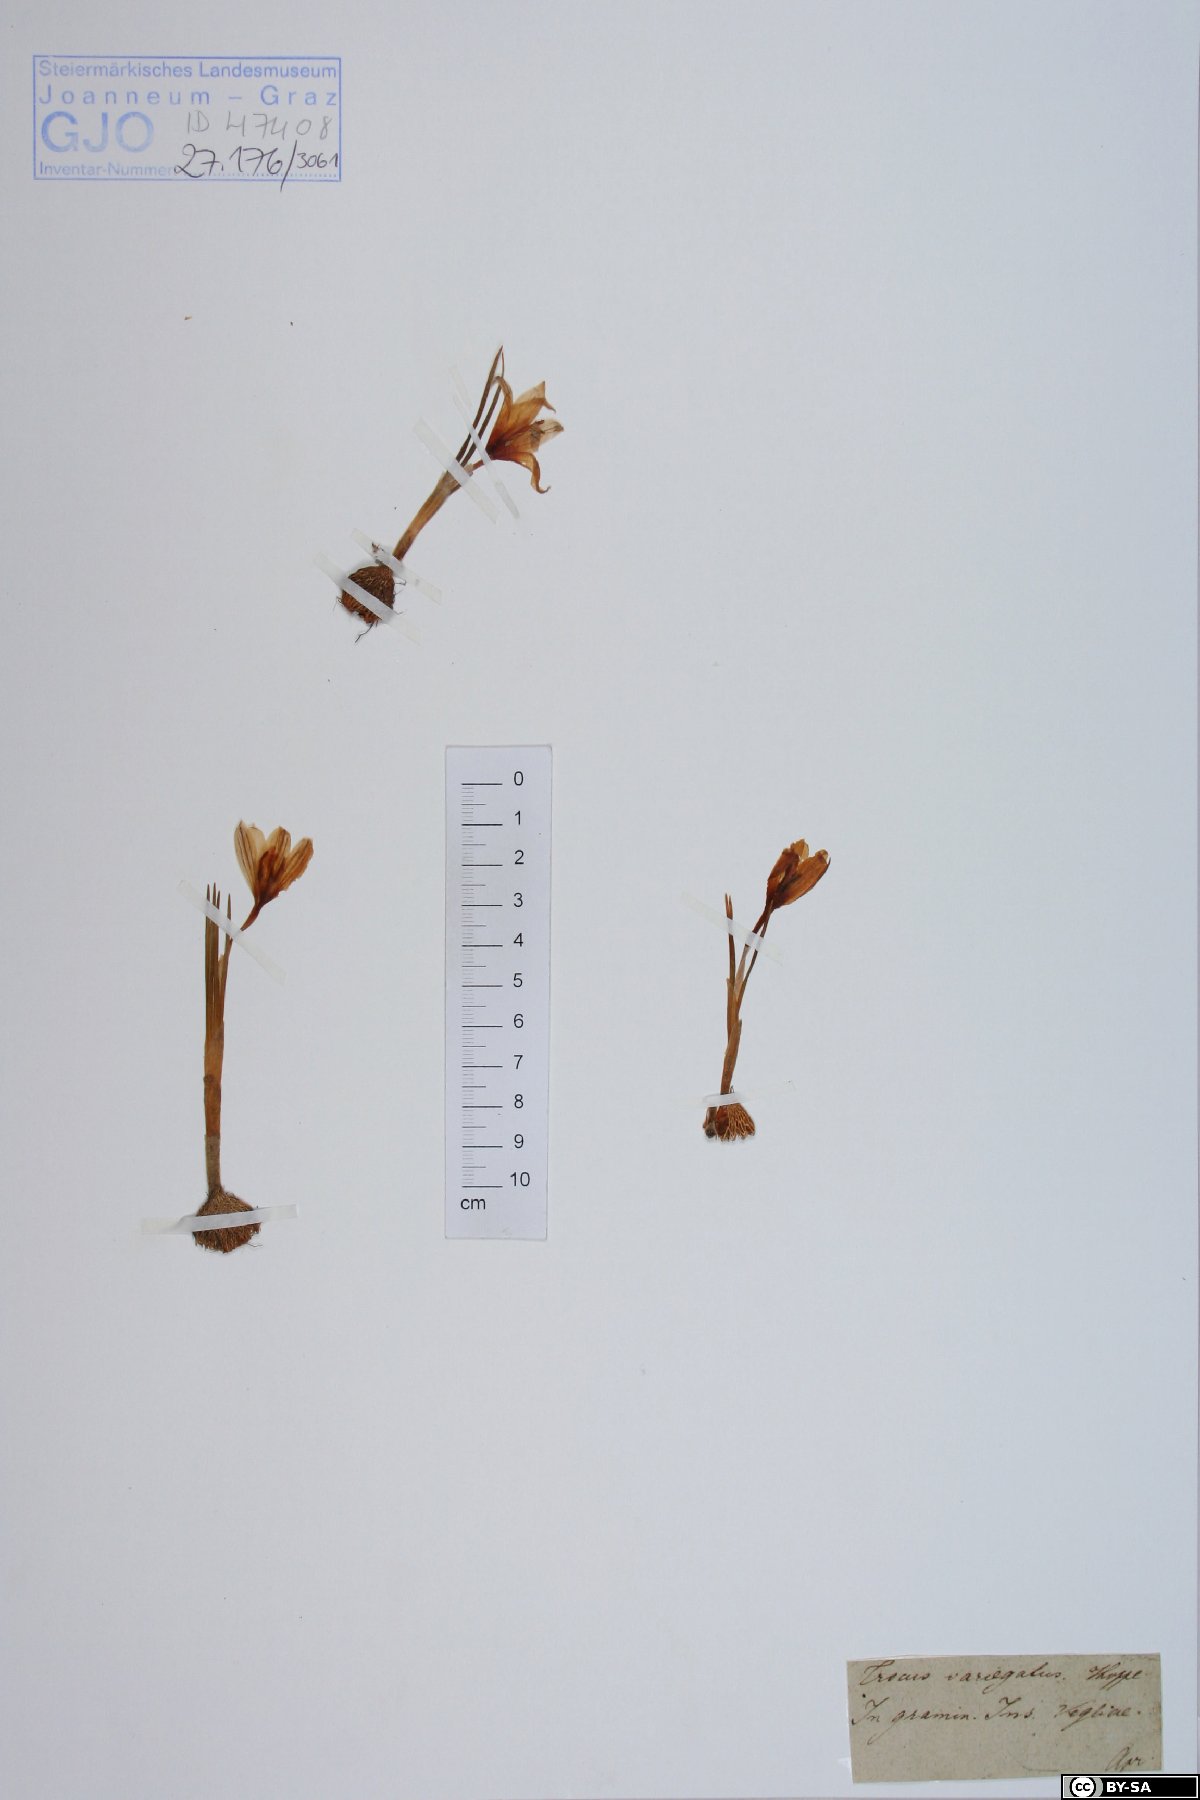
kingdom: Plantae
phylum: Tracheophyta
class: Liliopsida
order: Asparagales
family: Iridaceae
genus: Crocus
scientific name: Crocus variegatus
